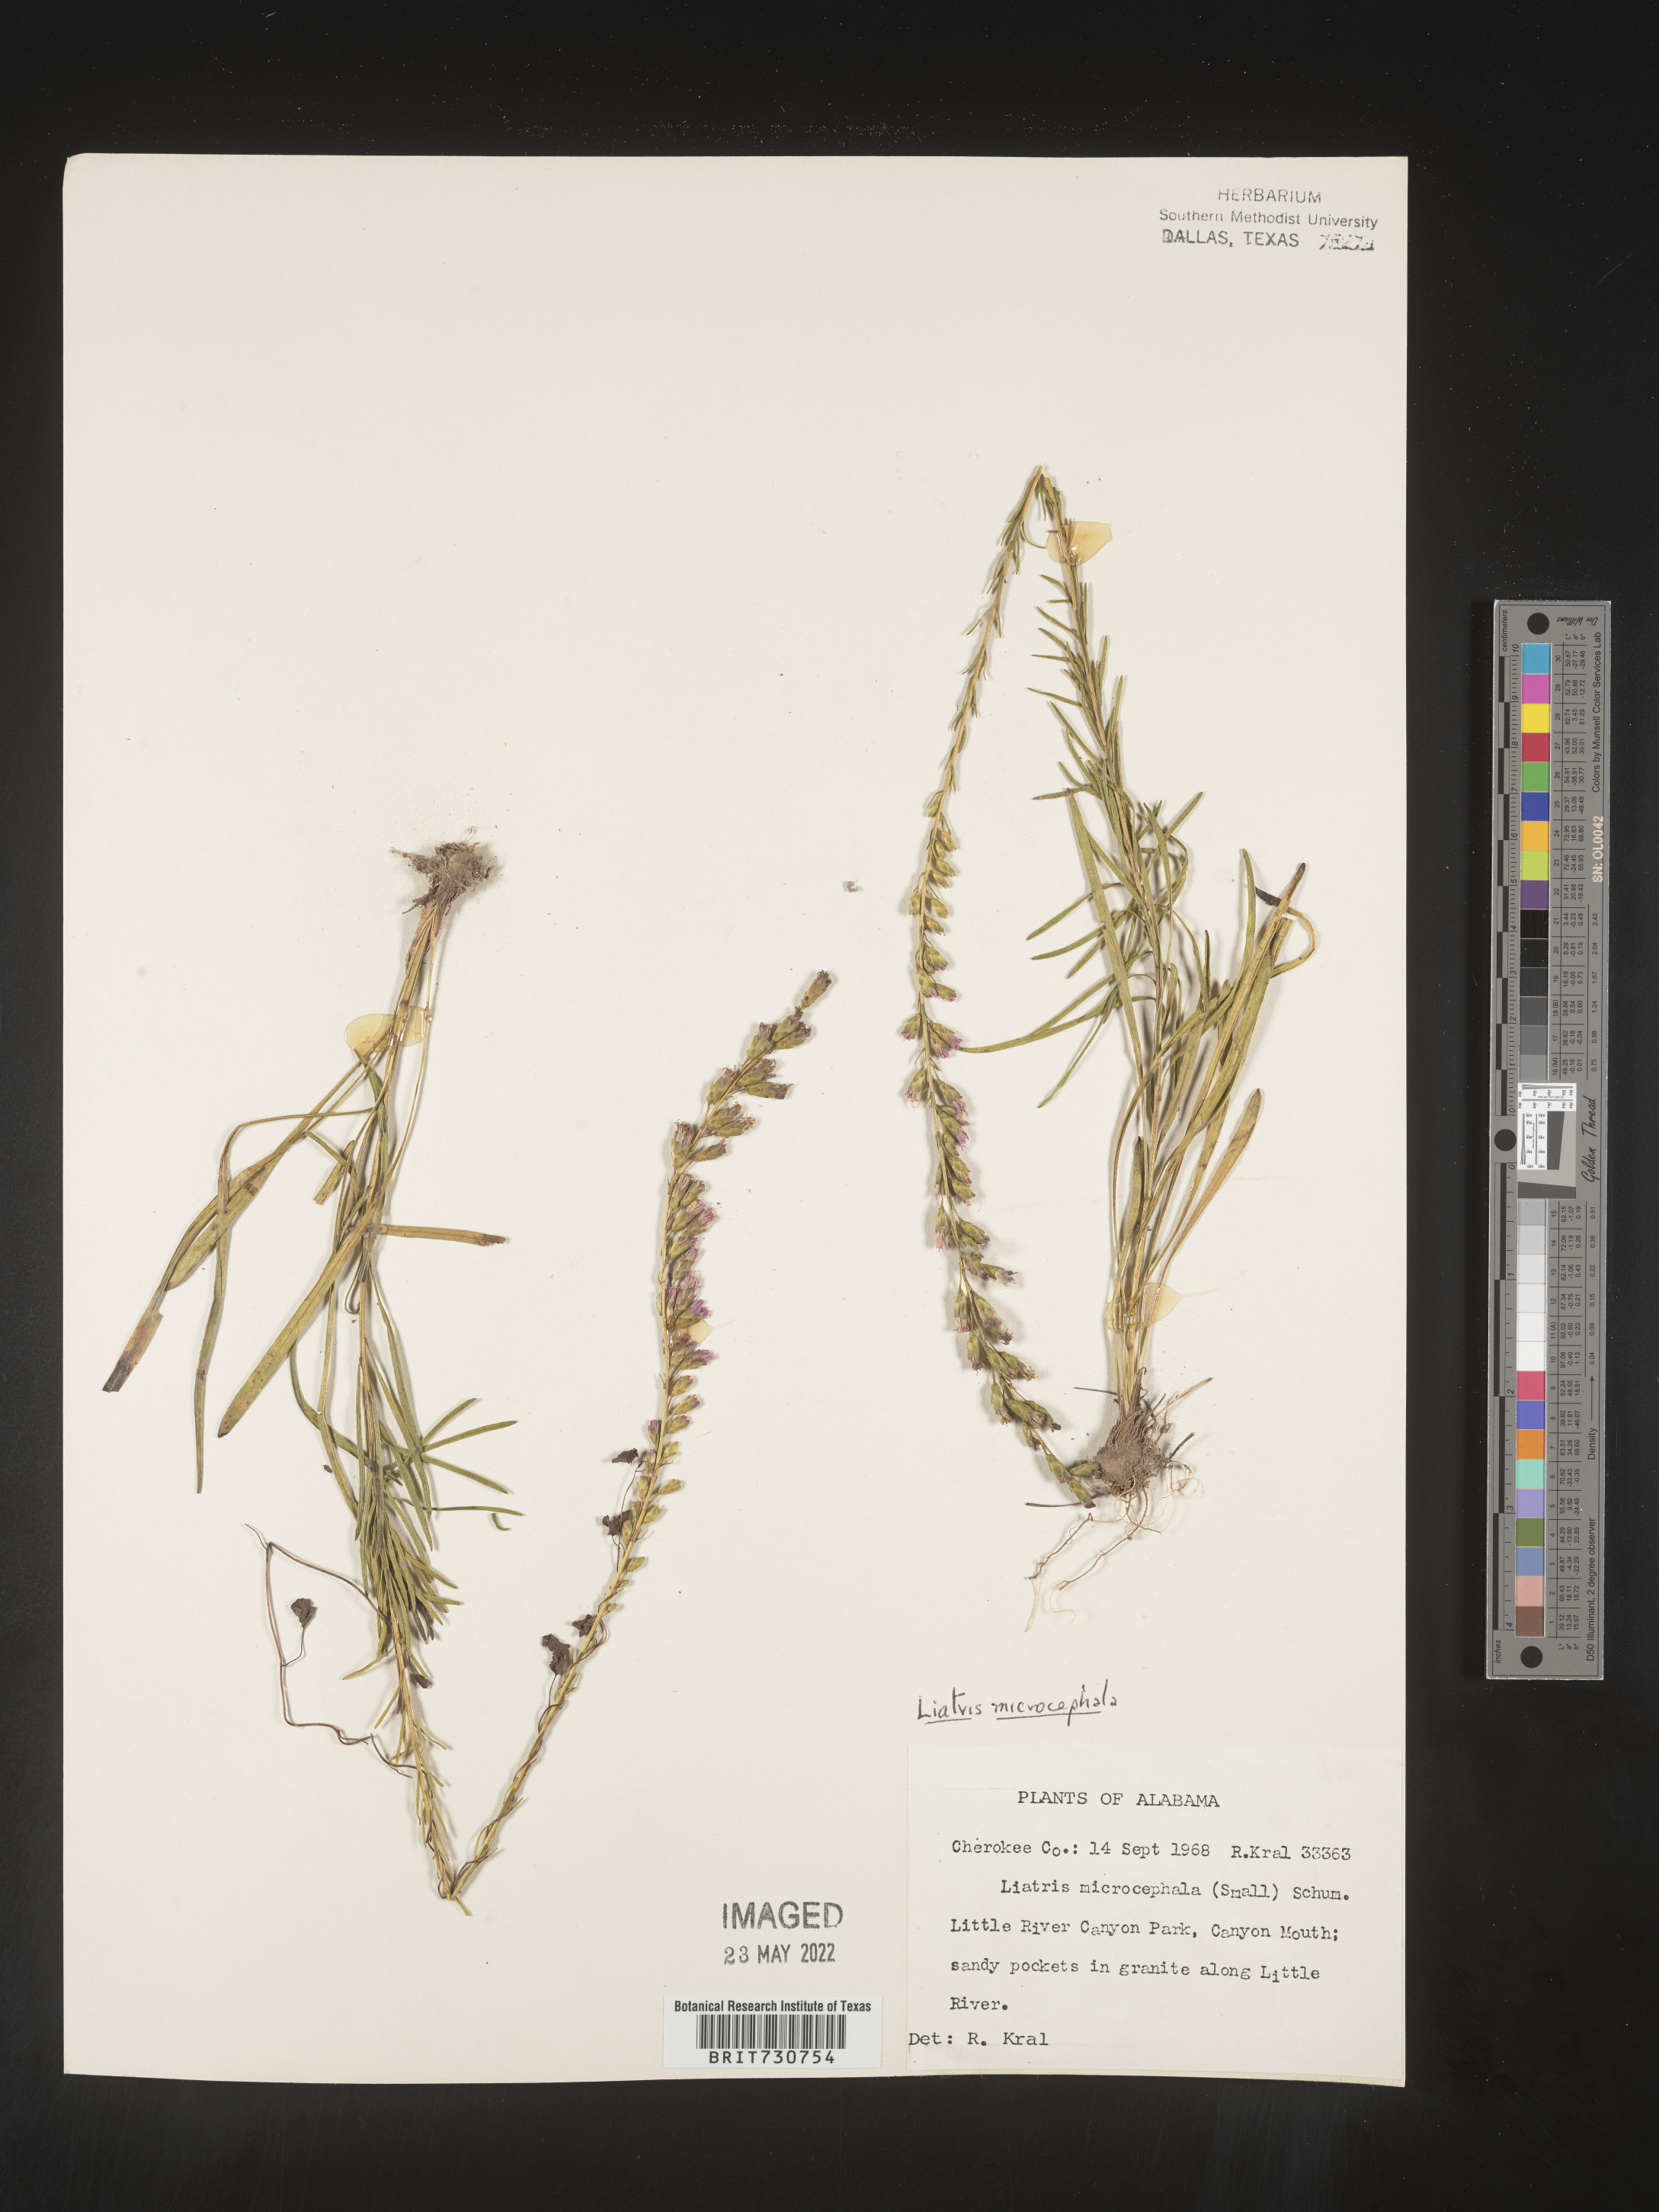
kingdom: Plantae
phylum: Tracheophyta
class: Magnoliopsida
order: Asterales
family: Asteraceae
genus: Liatris
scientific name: Liatris microcephala
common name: Small-head gayfeather
